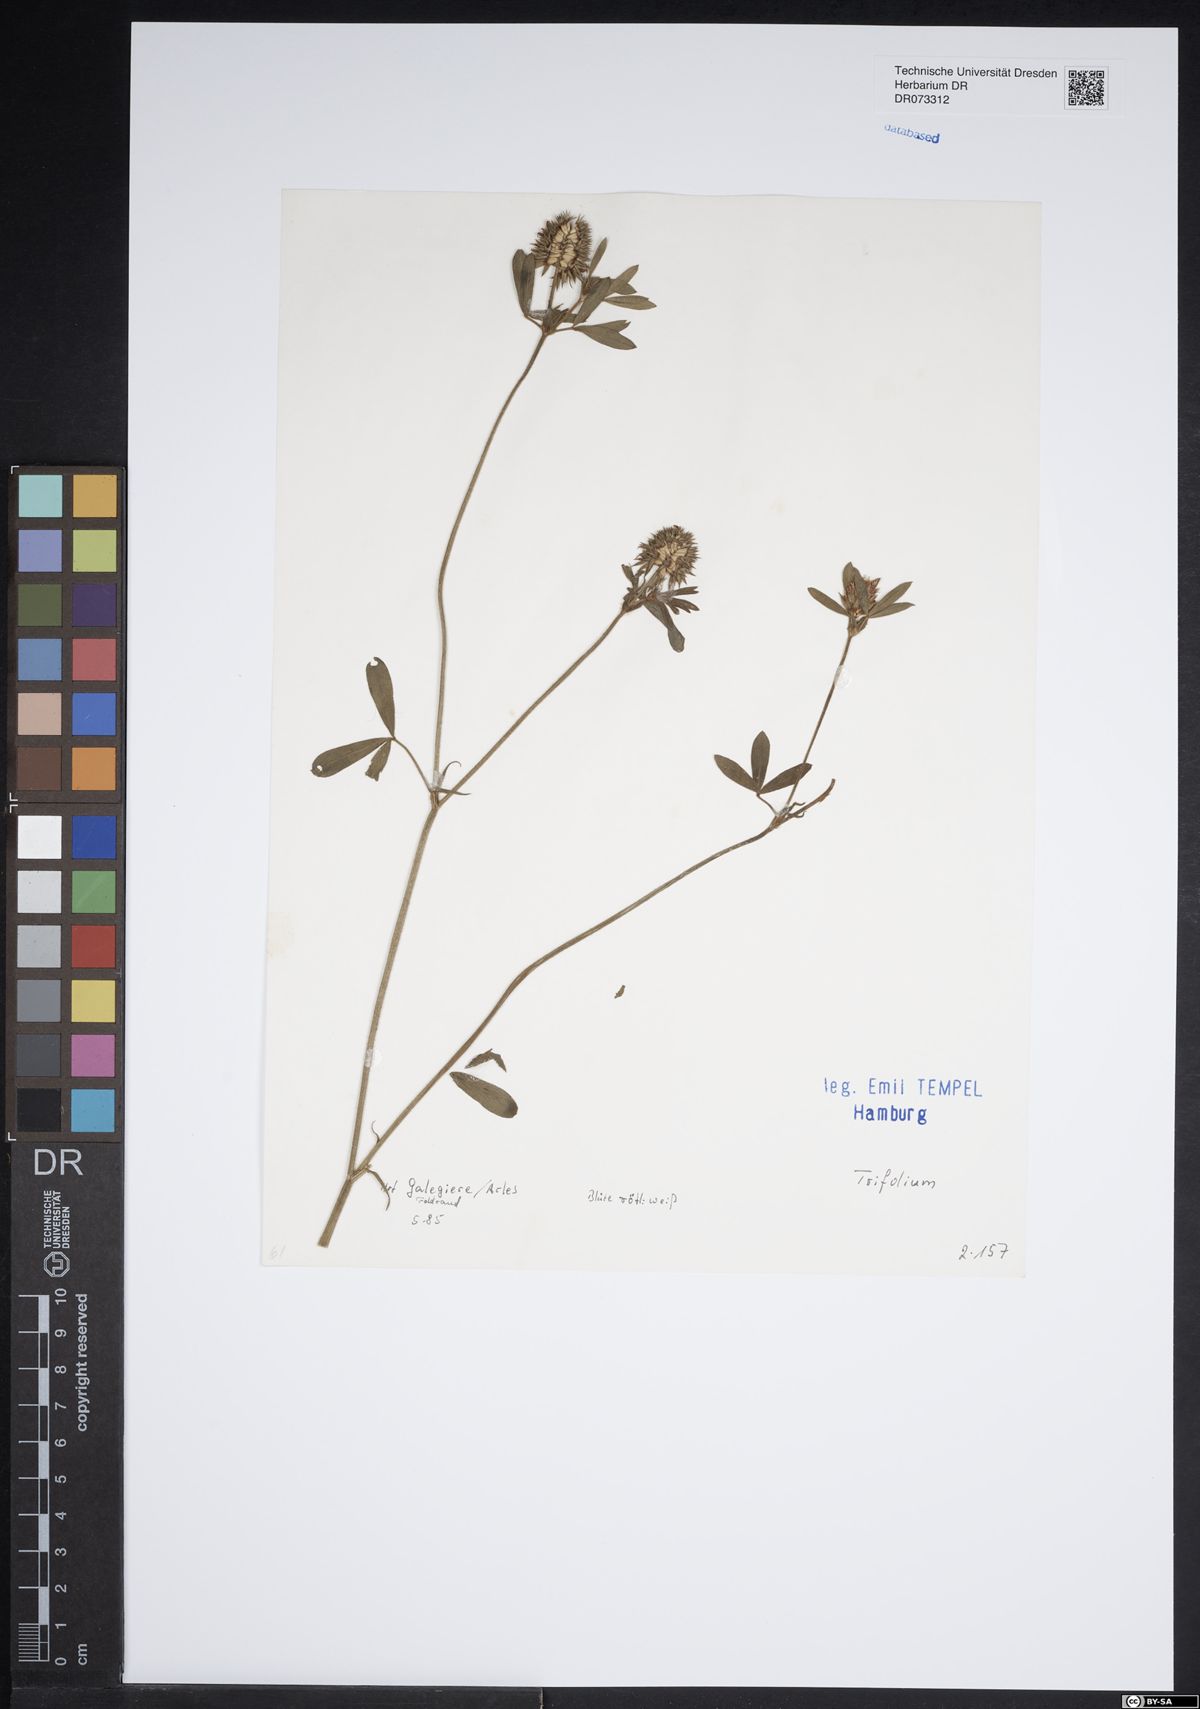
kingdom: Plantae
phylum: Tracheophyta
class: Magnoliopsida
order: Fabales
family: Fabaceae
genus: Trifolium
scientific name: Trifolium
